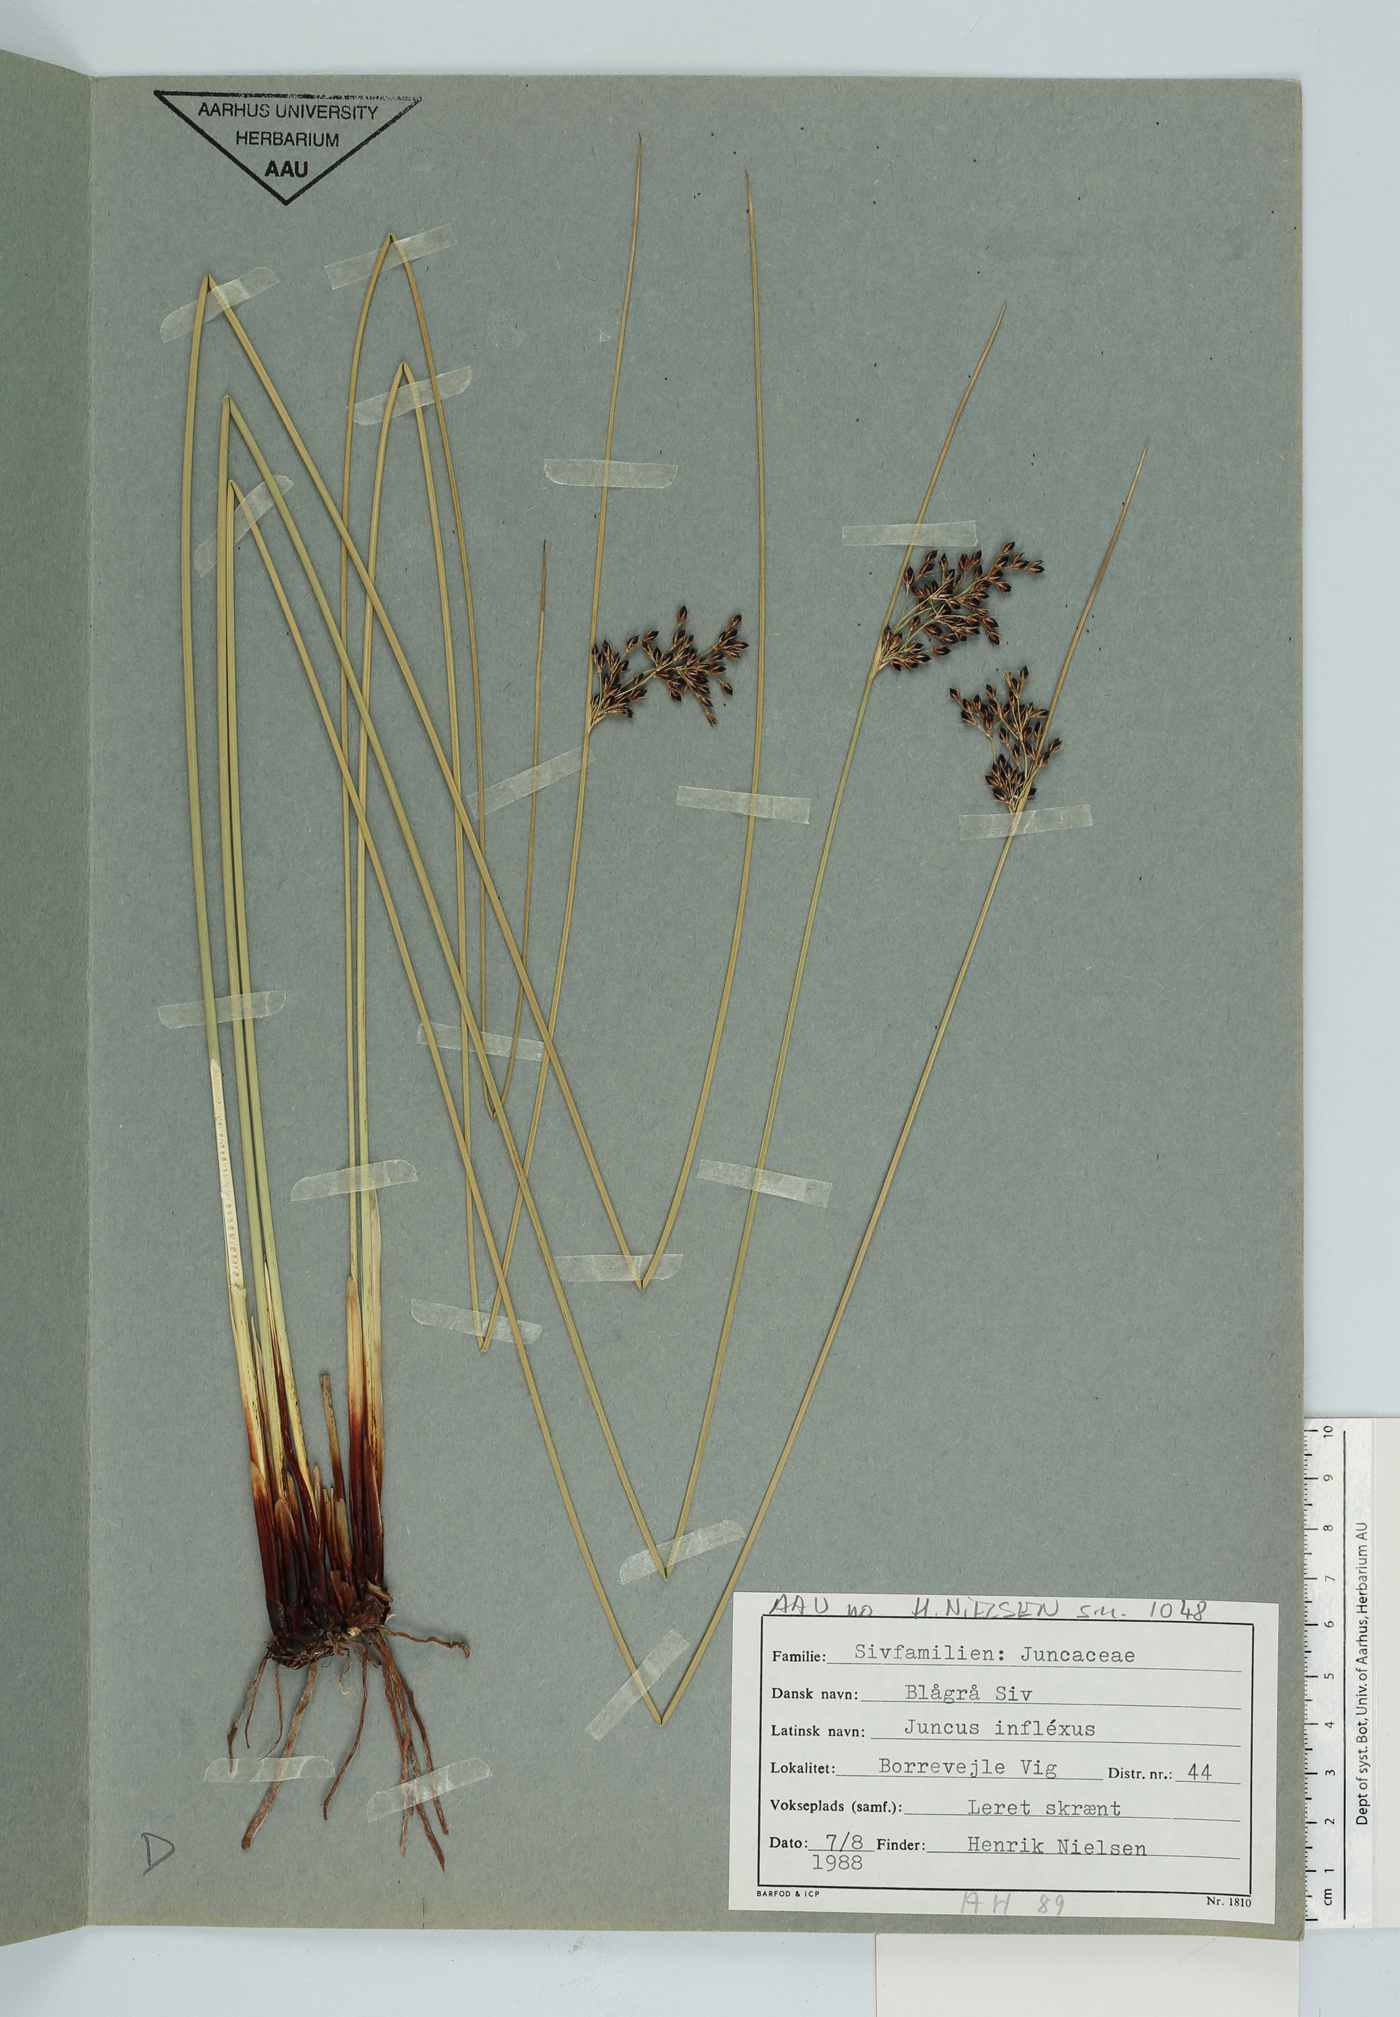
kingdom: Plantae
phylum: Tracheophyta
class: Liliopsida
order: Poales
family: Juncaceae
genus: Juncus
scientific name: Juncus inflexus
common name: Hard rush
